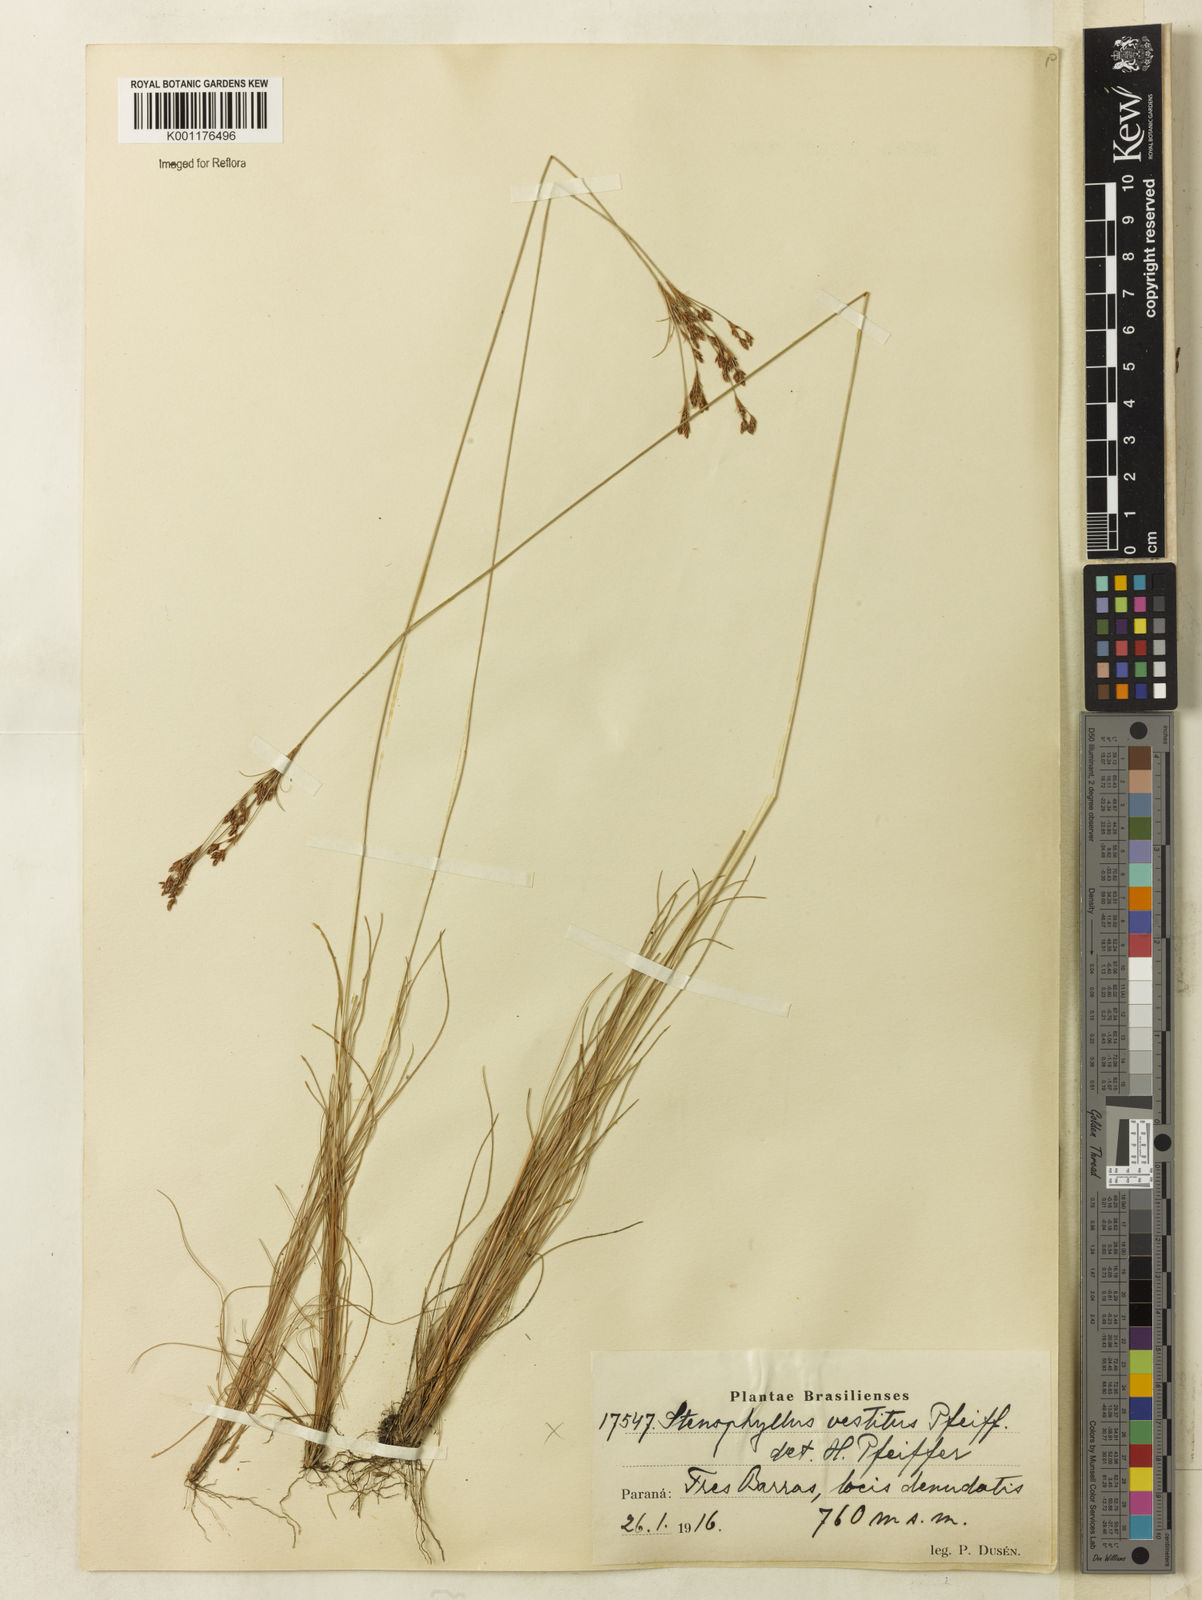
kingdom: Plantae
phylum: Tracheophyta
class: Liliopsida
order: Poales
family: Cyperaceae
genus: Bulbostylis
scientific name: Bulbostylis capillaris
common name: Densetuft hairsedge
